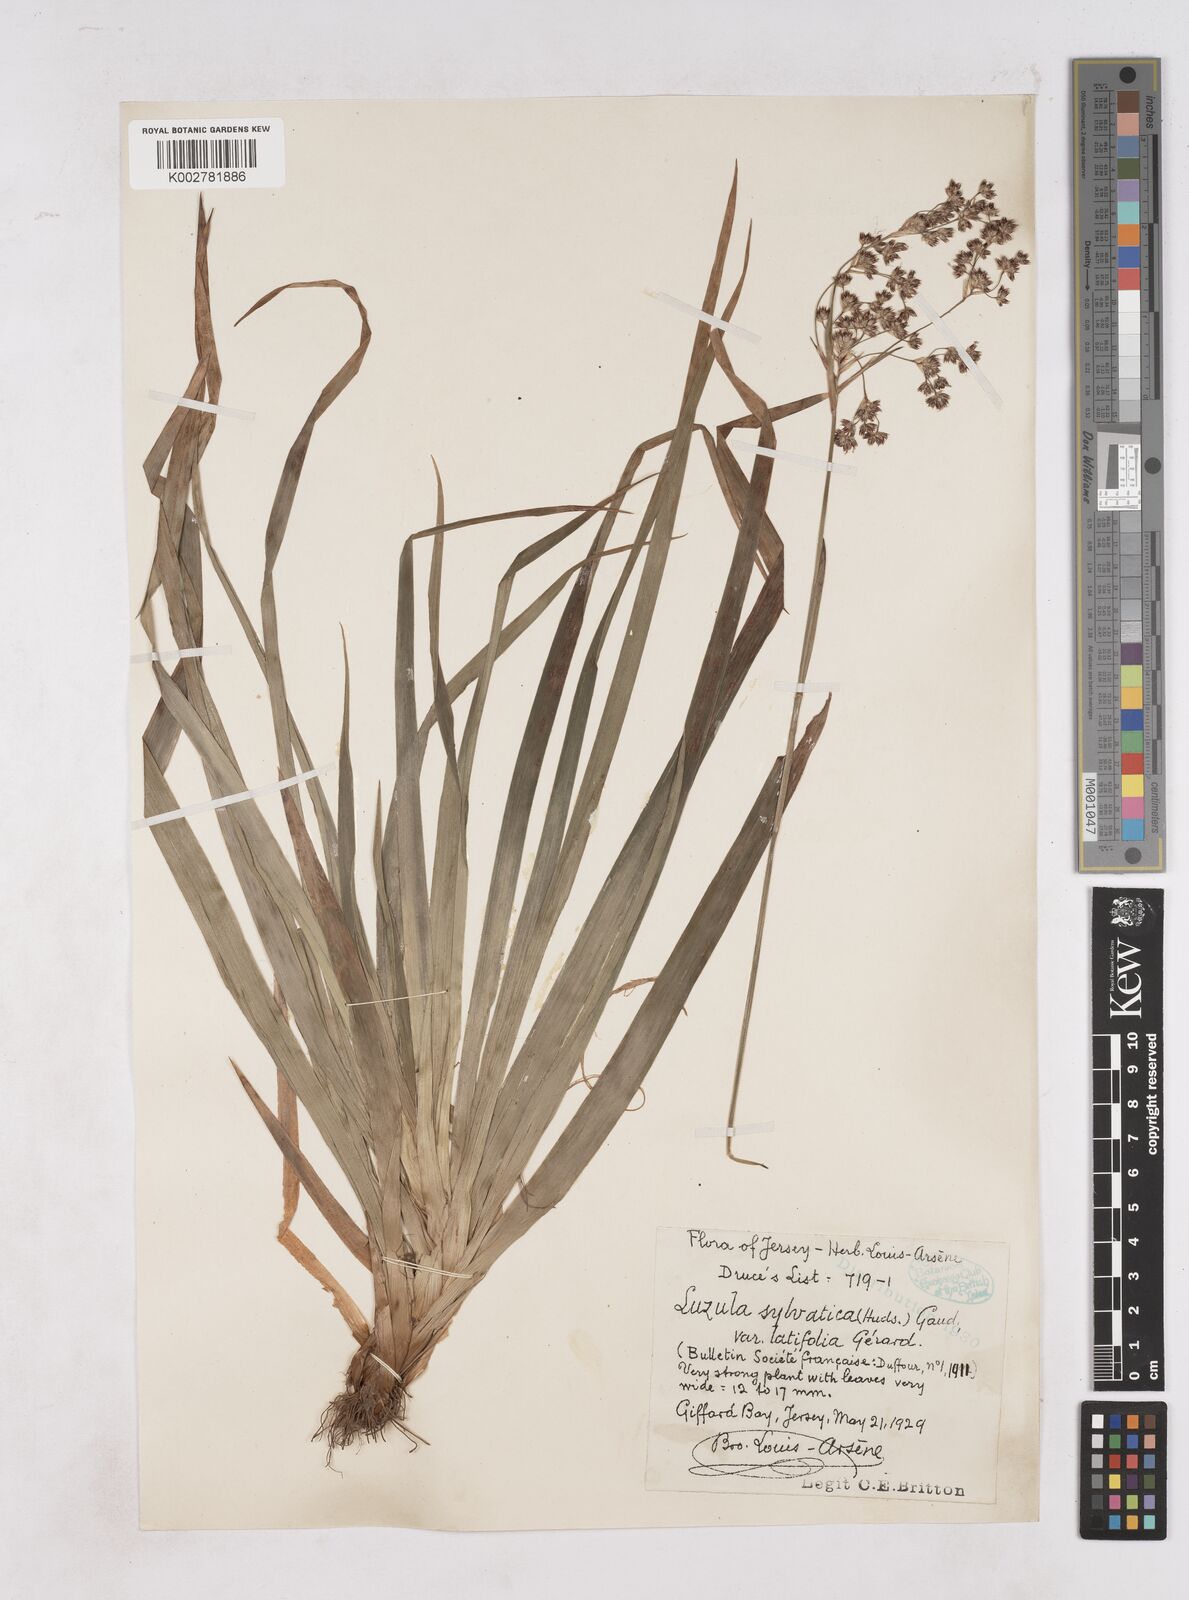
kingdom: Plantae
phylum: Tracheophyta
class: Liliopsida
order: Poales
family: Juncaceae
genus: Luzula
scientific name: Luzula sylvatica
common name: Great wood-rush
